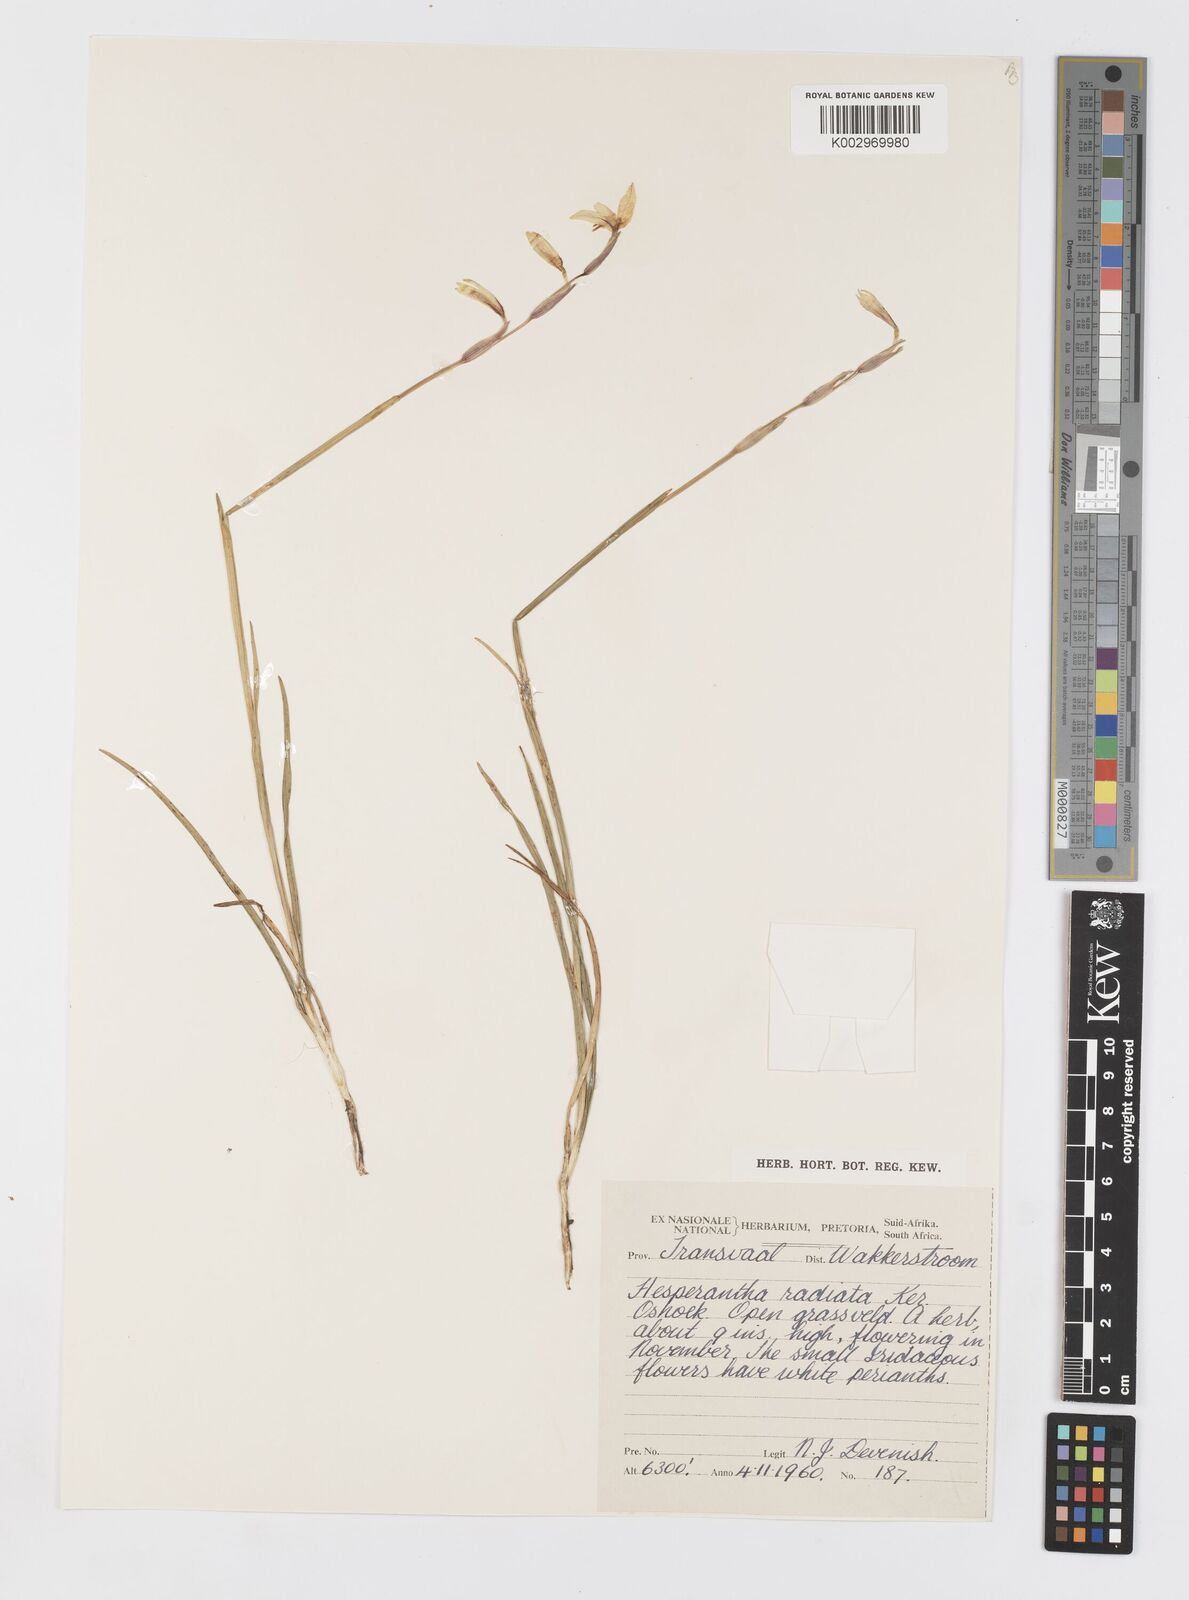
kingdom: Plantae
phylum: Tracheophyta
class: Liliopsida
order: Asparagales
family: Iridaceae
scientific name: Iridaceae
